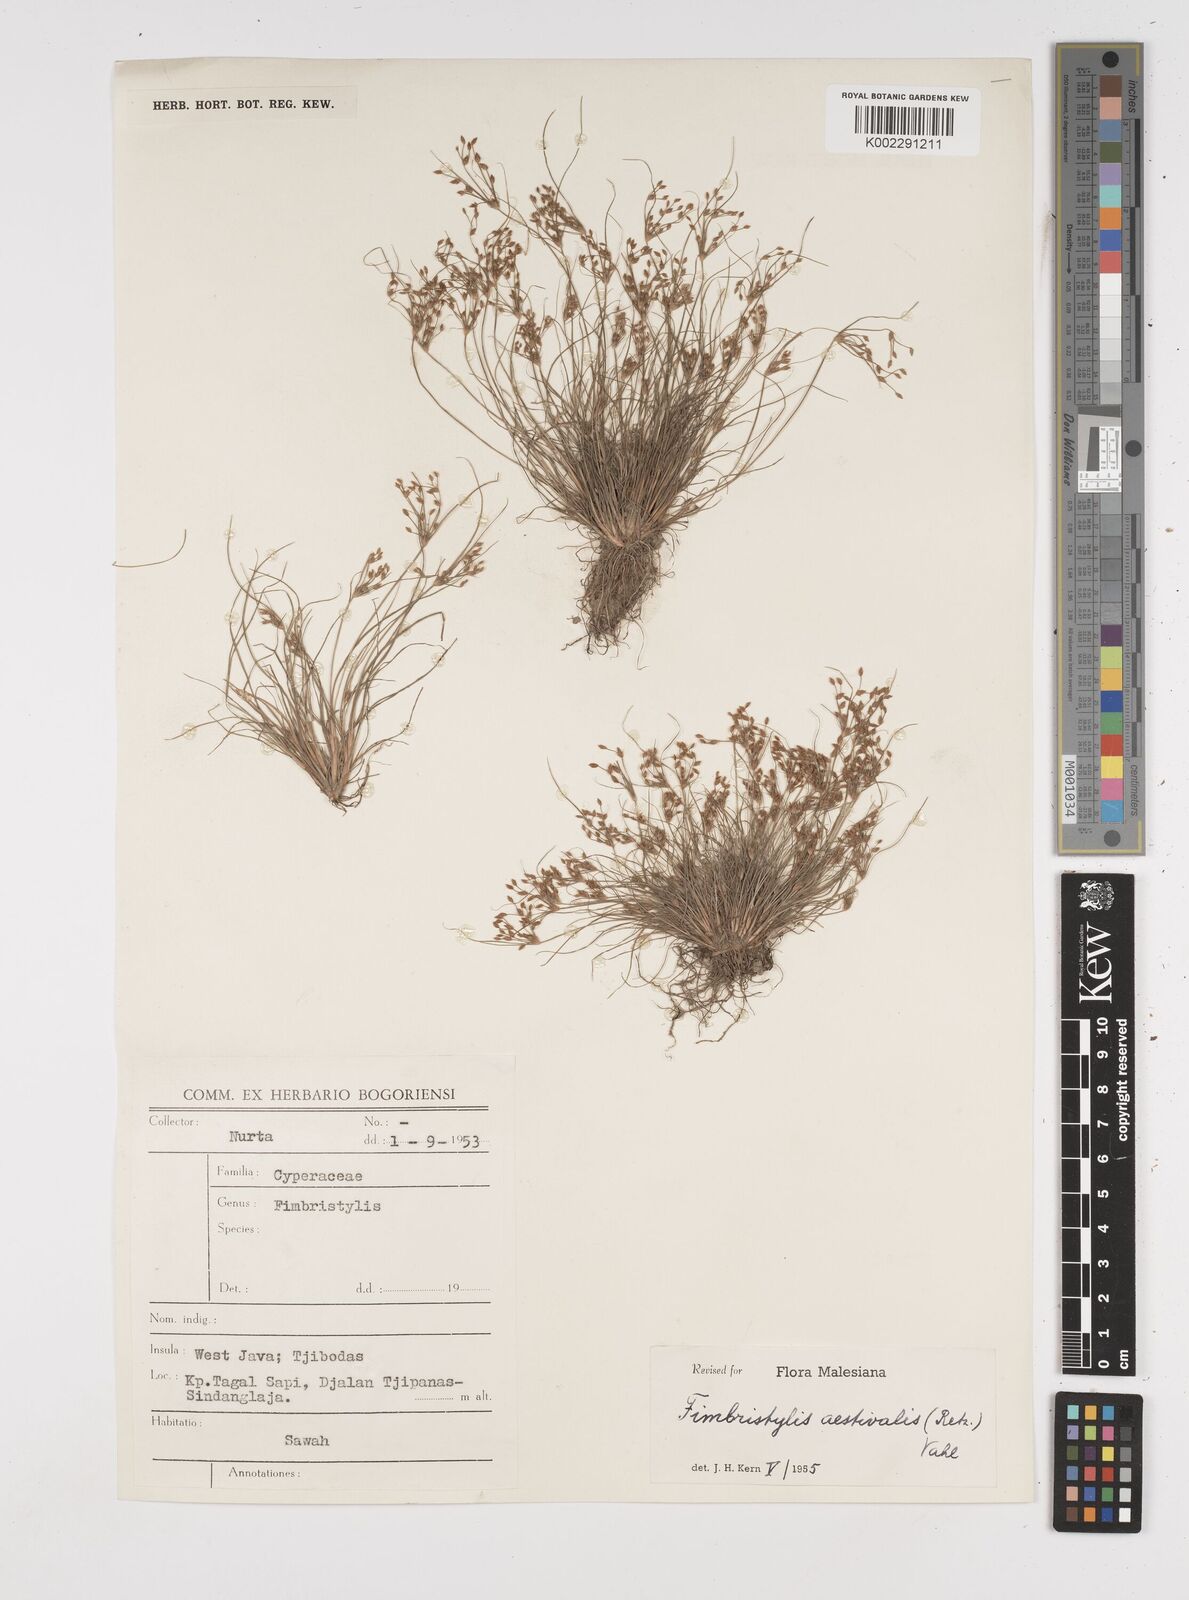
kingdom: Plantae
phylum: Tracheophyta
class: Liliopsida
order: Poales
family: Cyperaceae
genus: Fimbristylis
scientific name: Fimbristylis aestivalis
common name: Summer fimbry
